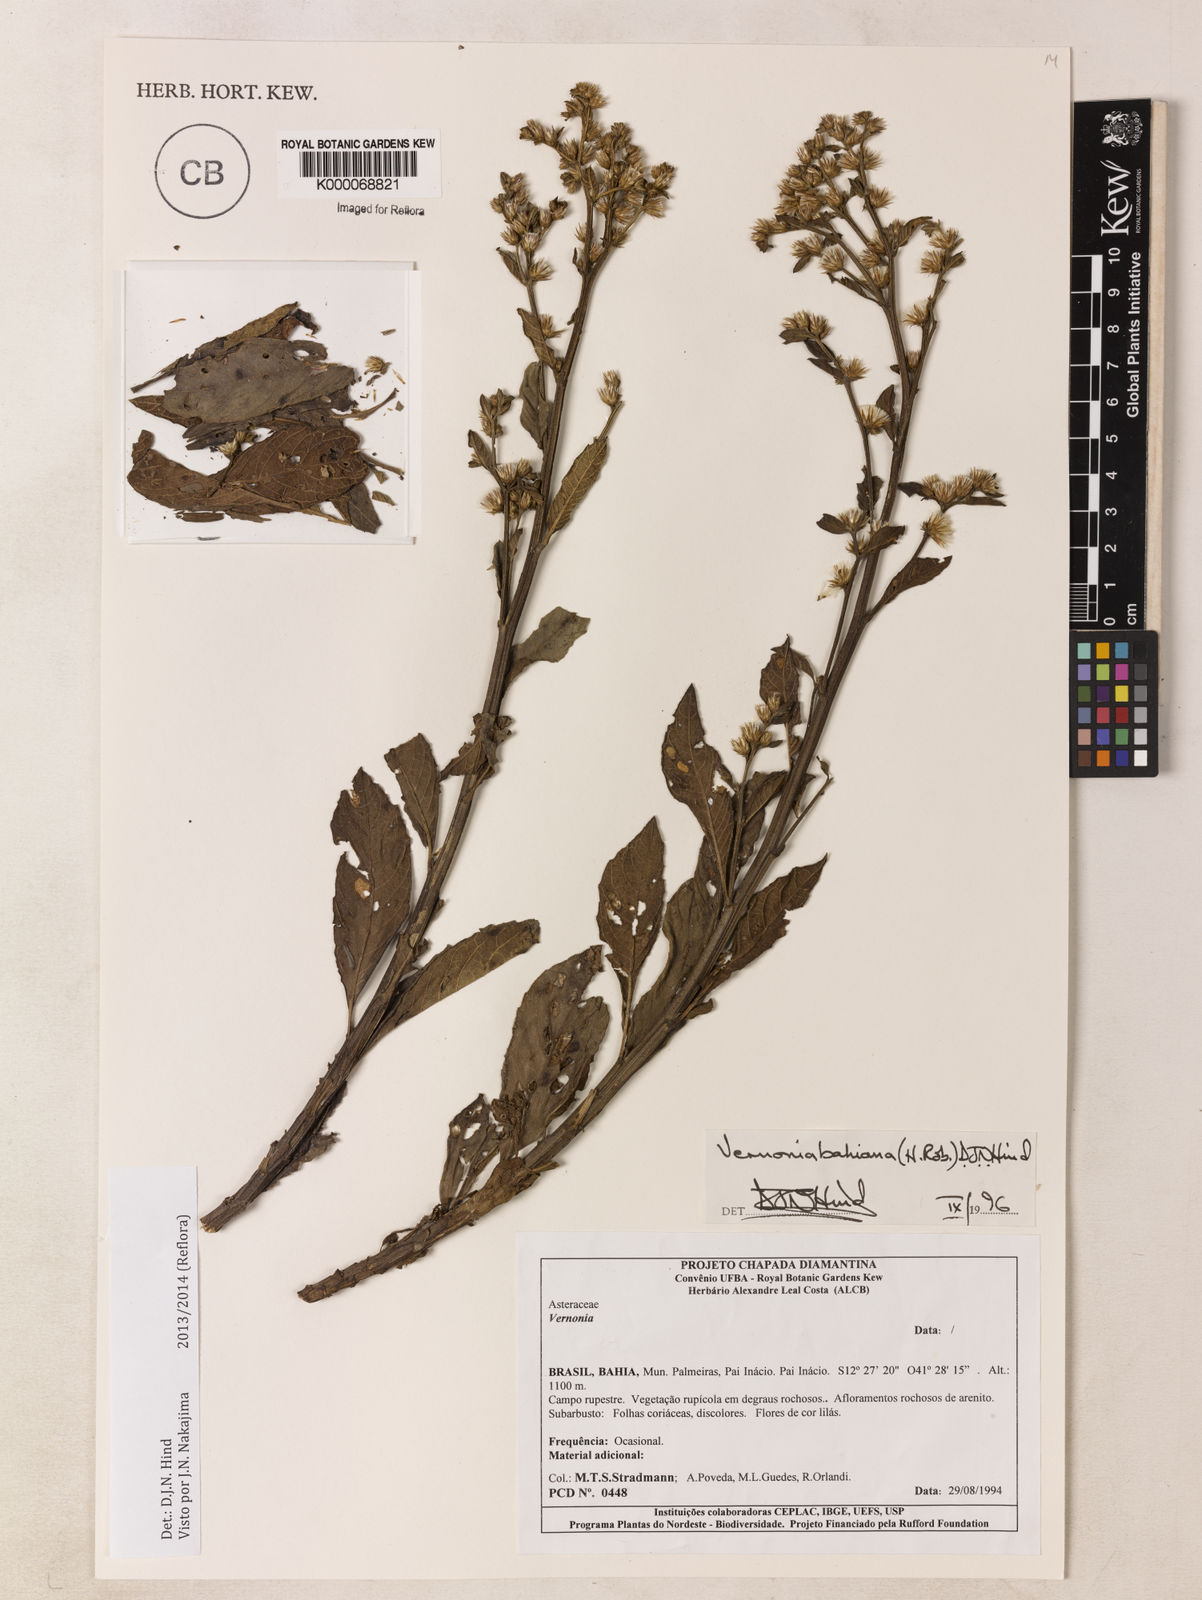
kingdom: Plantae
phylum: Tracheophyta
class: Magnoliopsida
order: Asterales
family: Asteraceae
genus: Lepidaploa
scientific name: Lepidaploa bahiana
